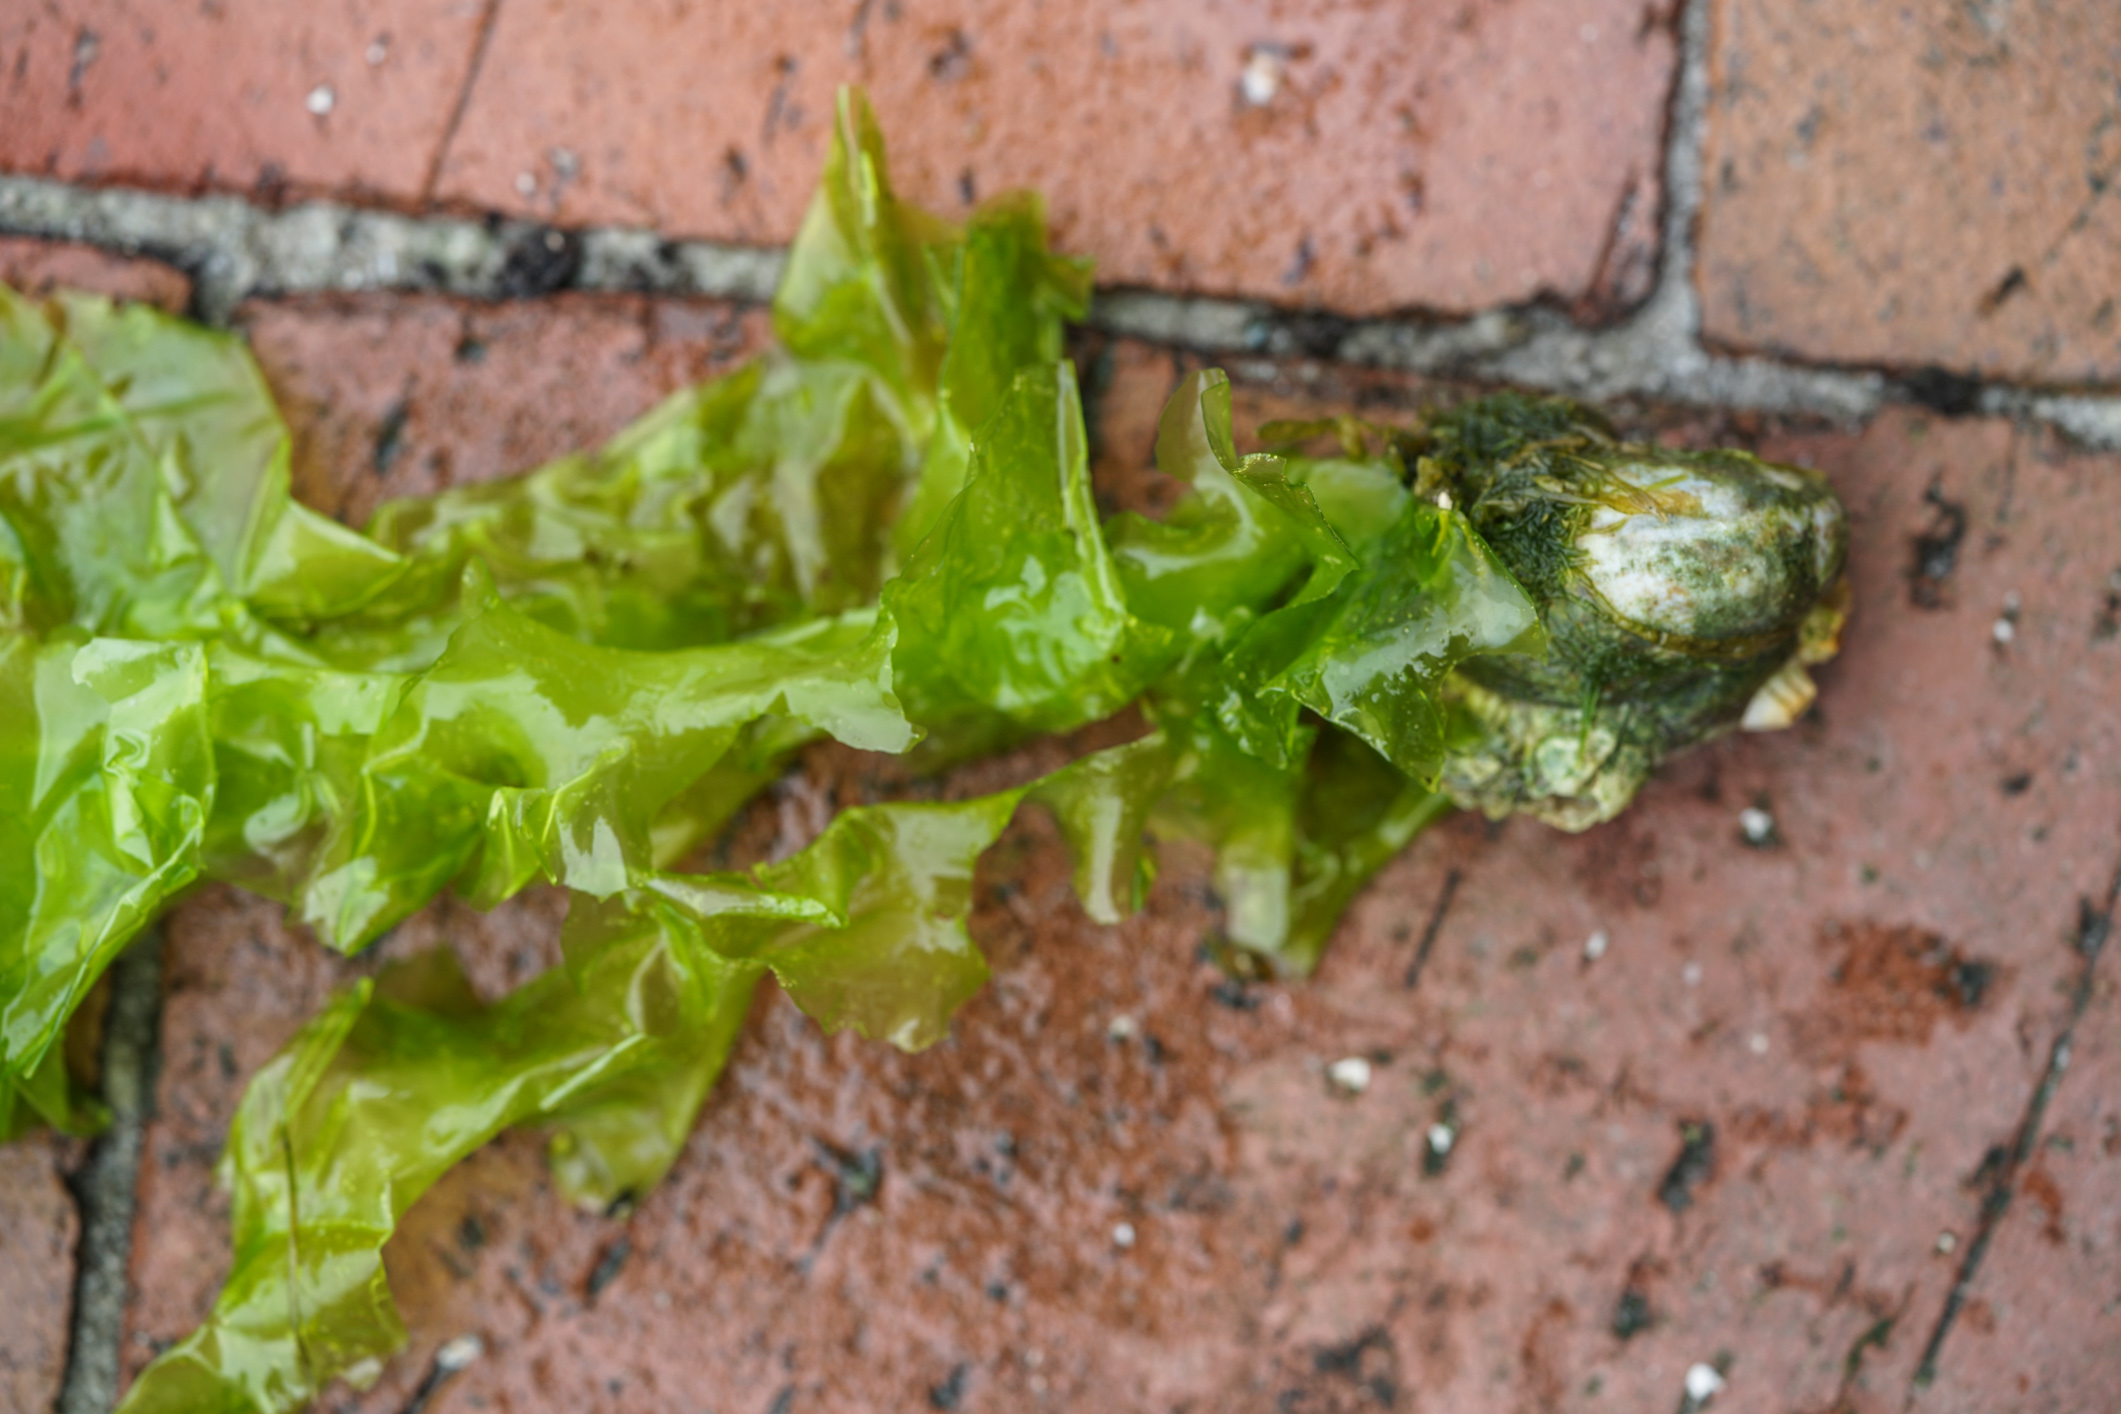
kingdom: Plantae
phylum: Chlorophyta
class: Ulvophyceae
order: Ulvales
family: Ulvaceae
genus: Ulva
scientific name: Ulva lactuca
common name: Sea lettuce
